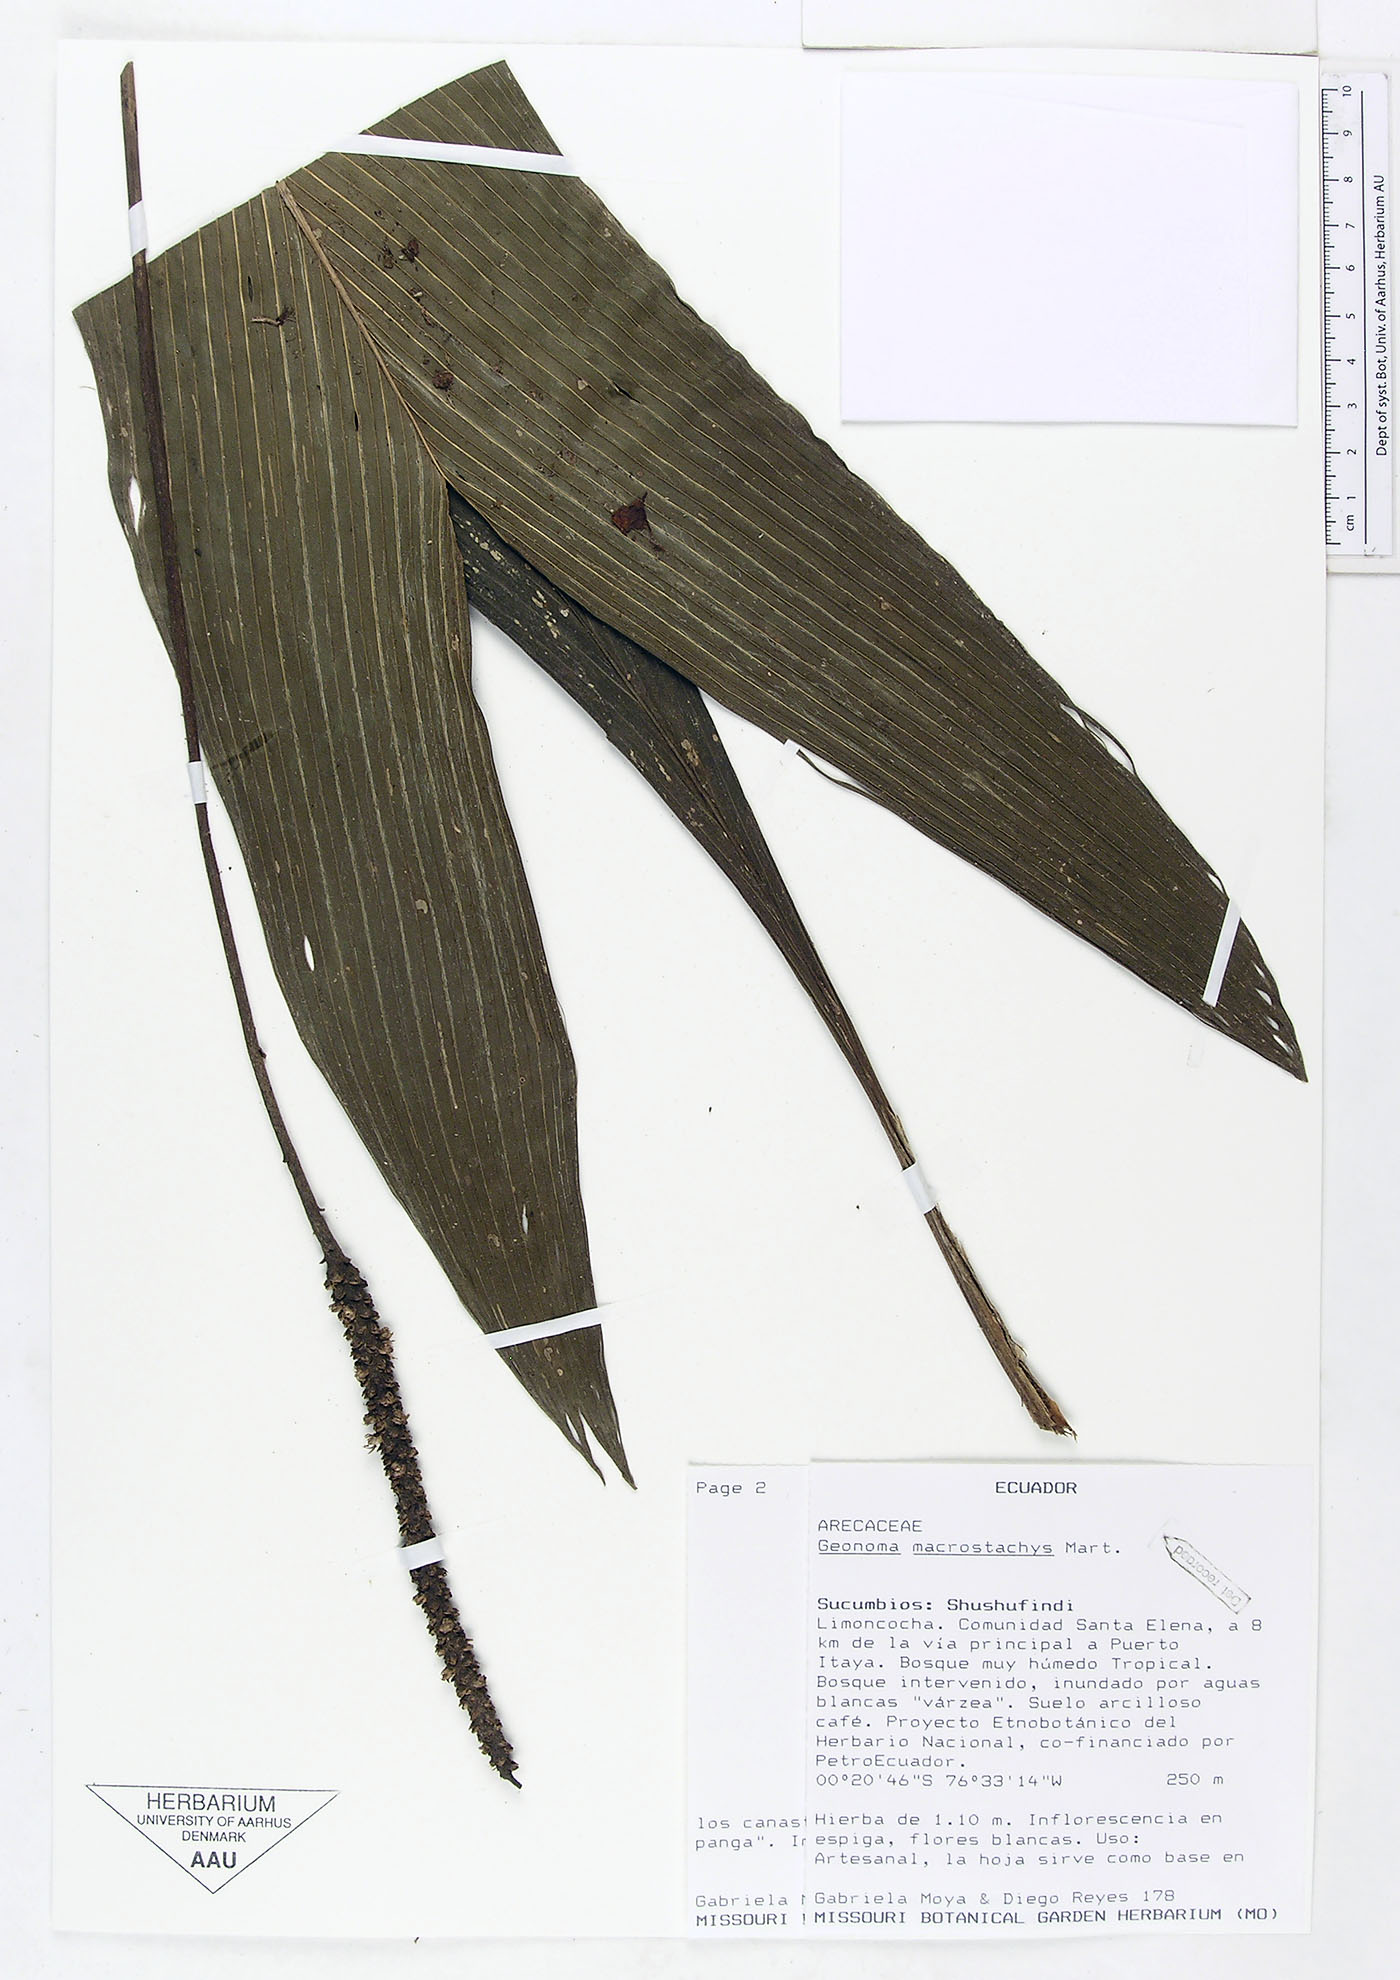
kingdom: Plantae
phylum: Tracheophyta
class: Liliopsida
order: Arecales
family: Arecaceae
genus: Geonoma
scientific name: Geonoma macrostachys
